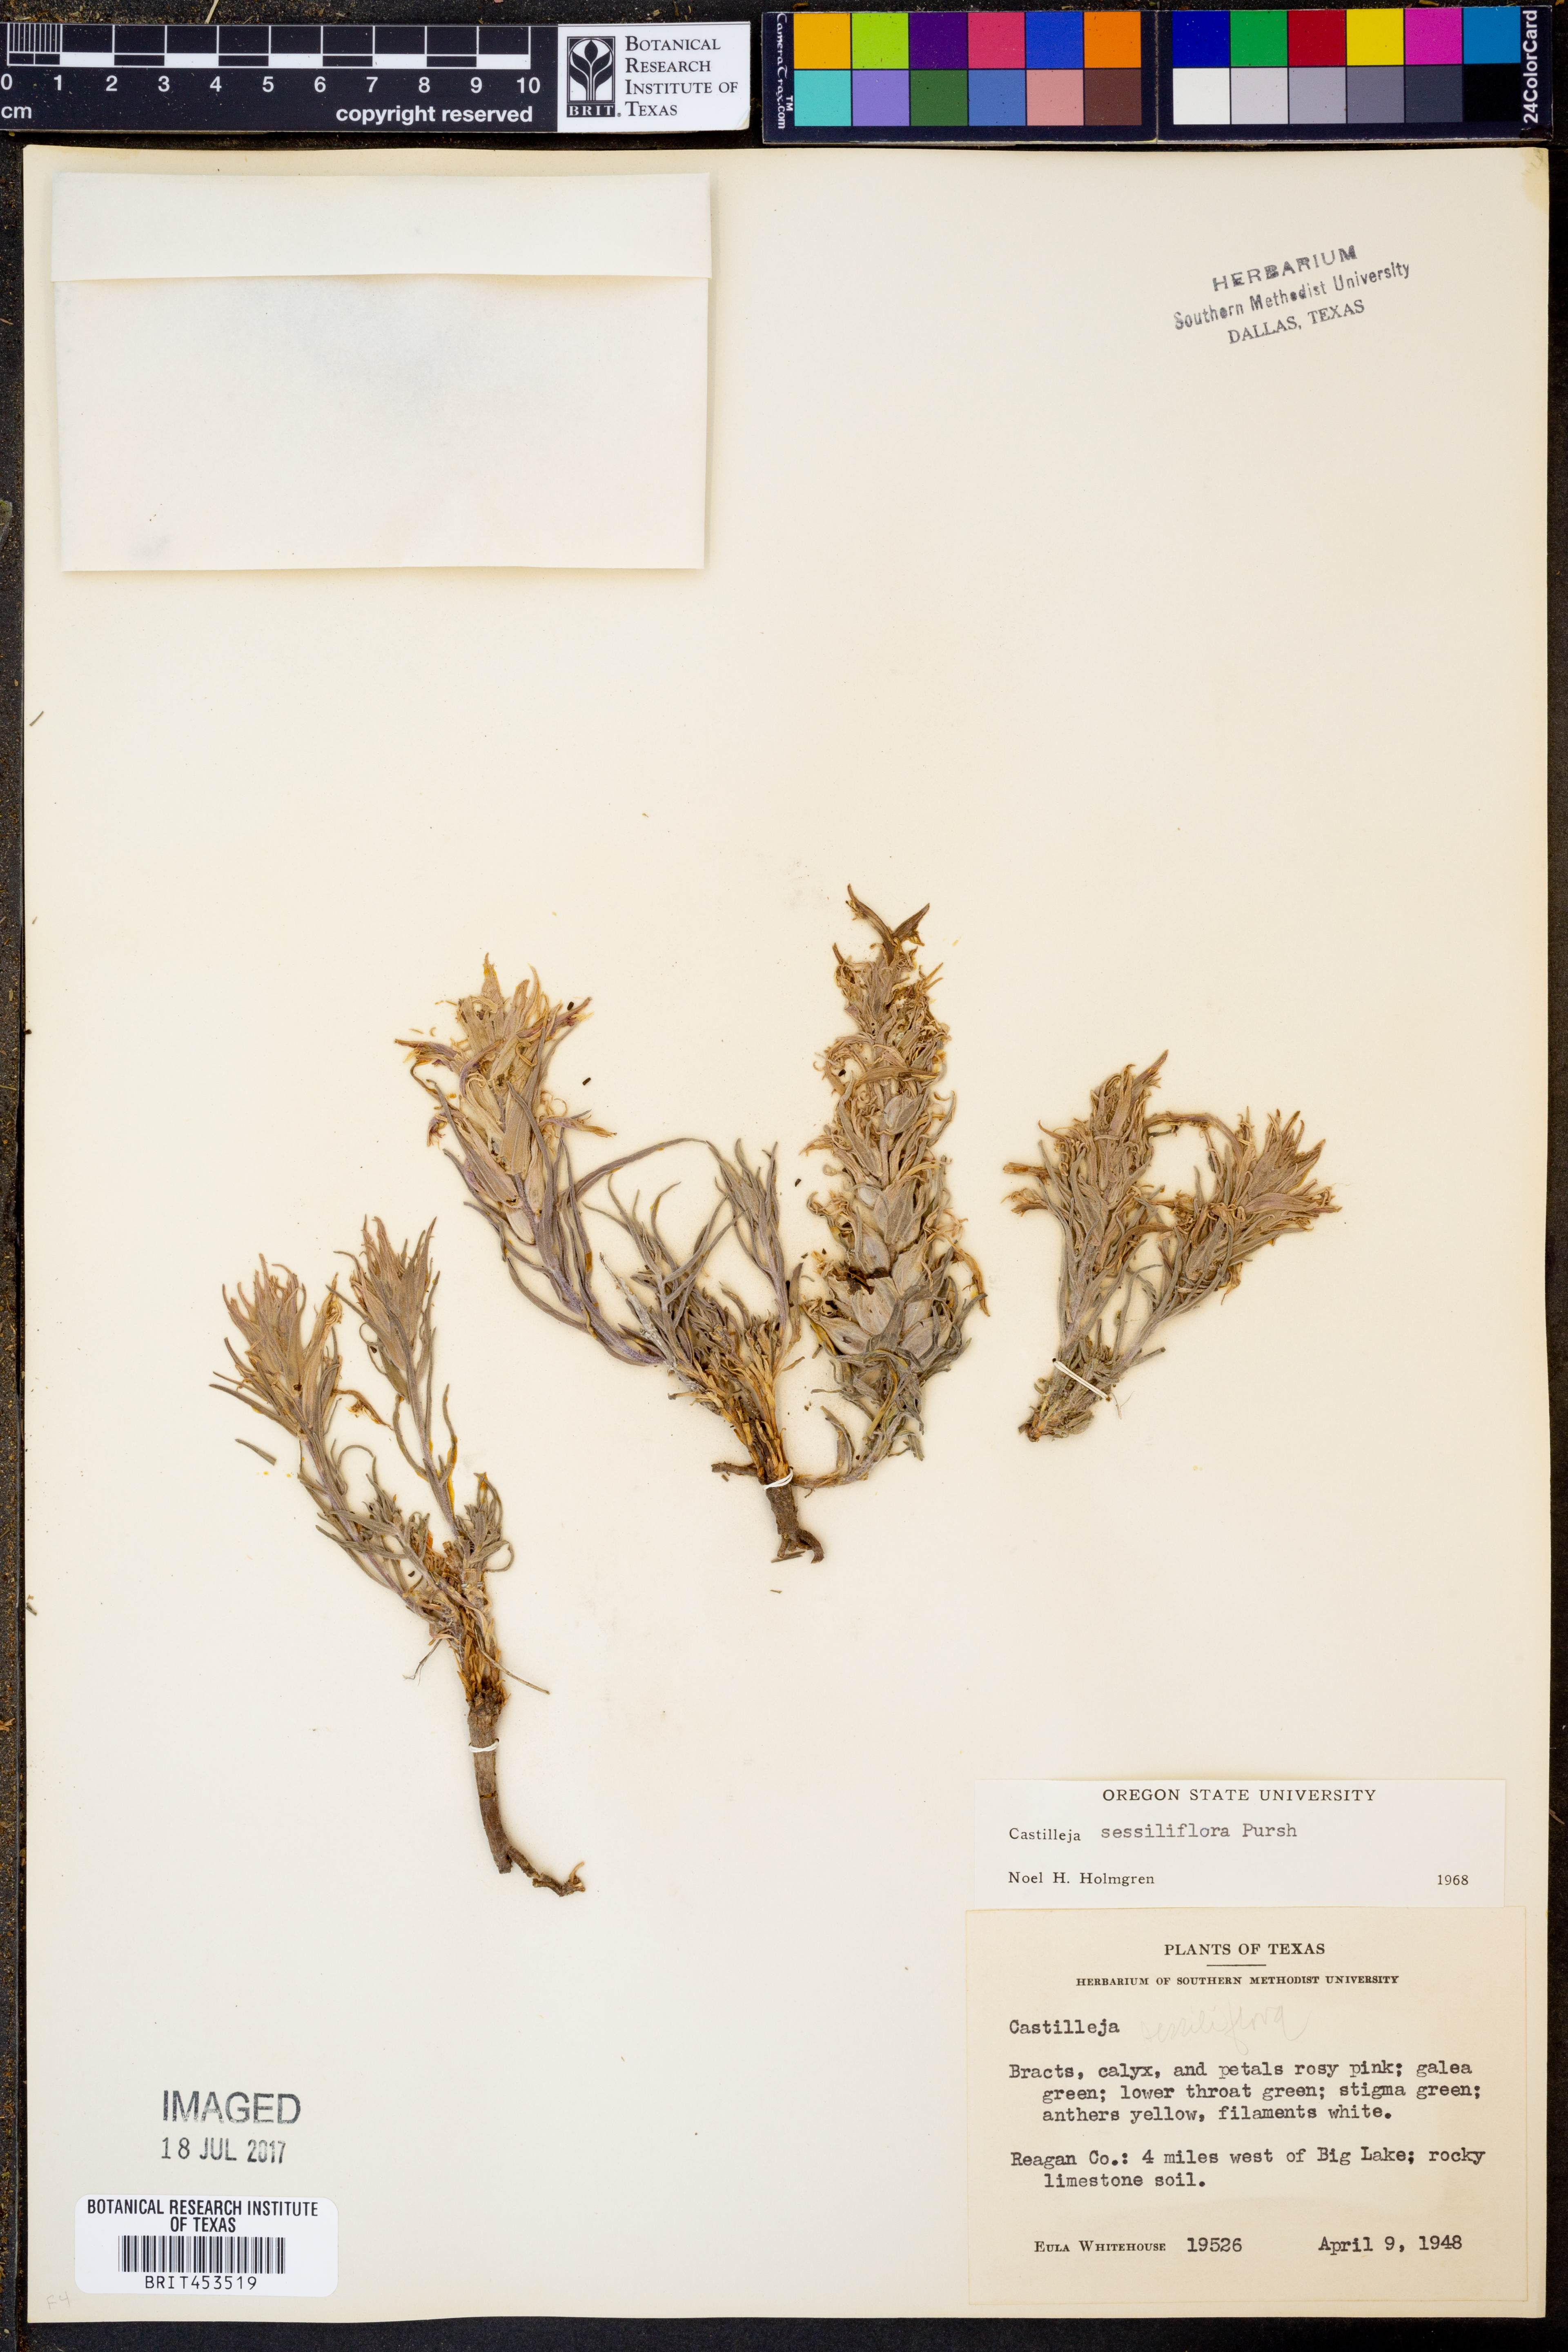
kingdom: Plantae
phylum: Tracheophyta
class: Magnoliopsida
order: Lamiales
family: Orobanchaceae
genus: Castilleja
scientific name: Castilleja sessiliflora
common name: Downy paintbrush
